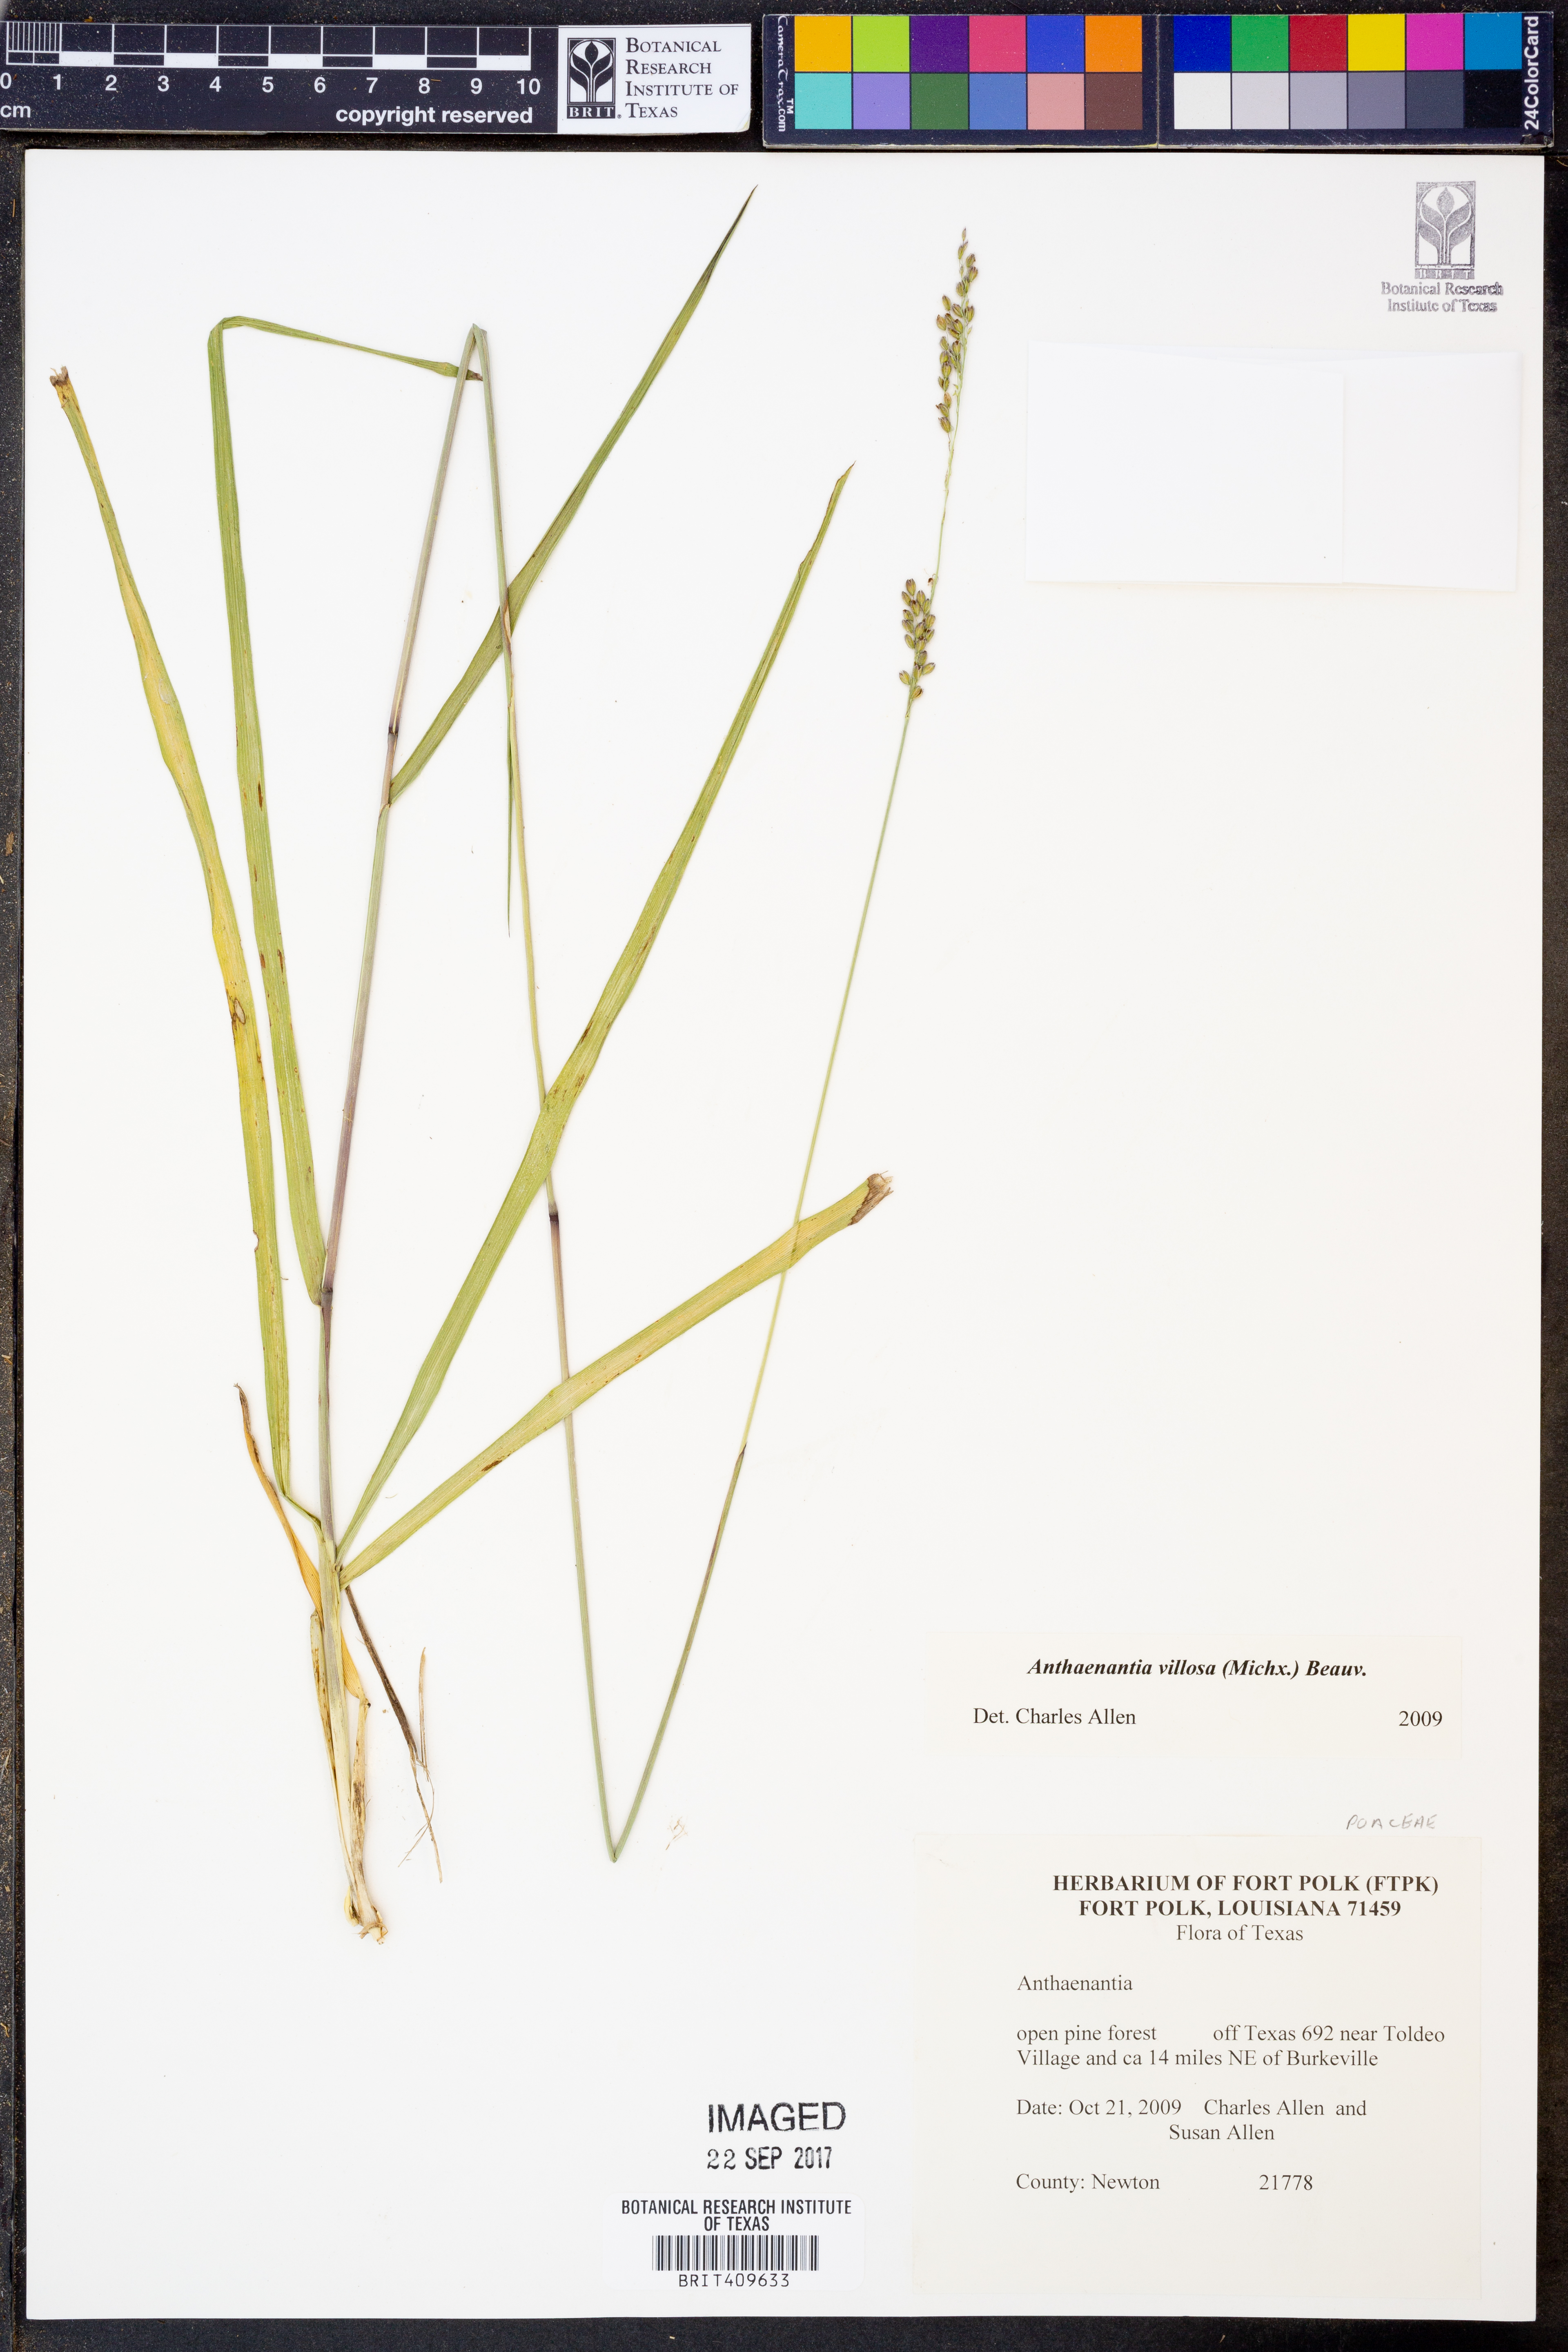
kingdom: Plantae
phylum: Tracheophyta
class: Liliopsida
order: Poales
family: Poaceae
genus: Anthenantia
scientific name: Anthenantia villosa
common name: Green silkyscale
